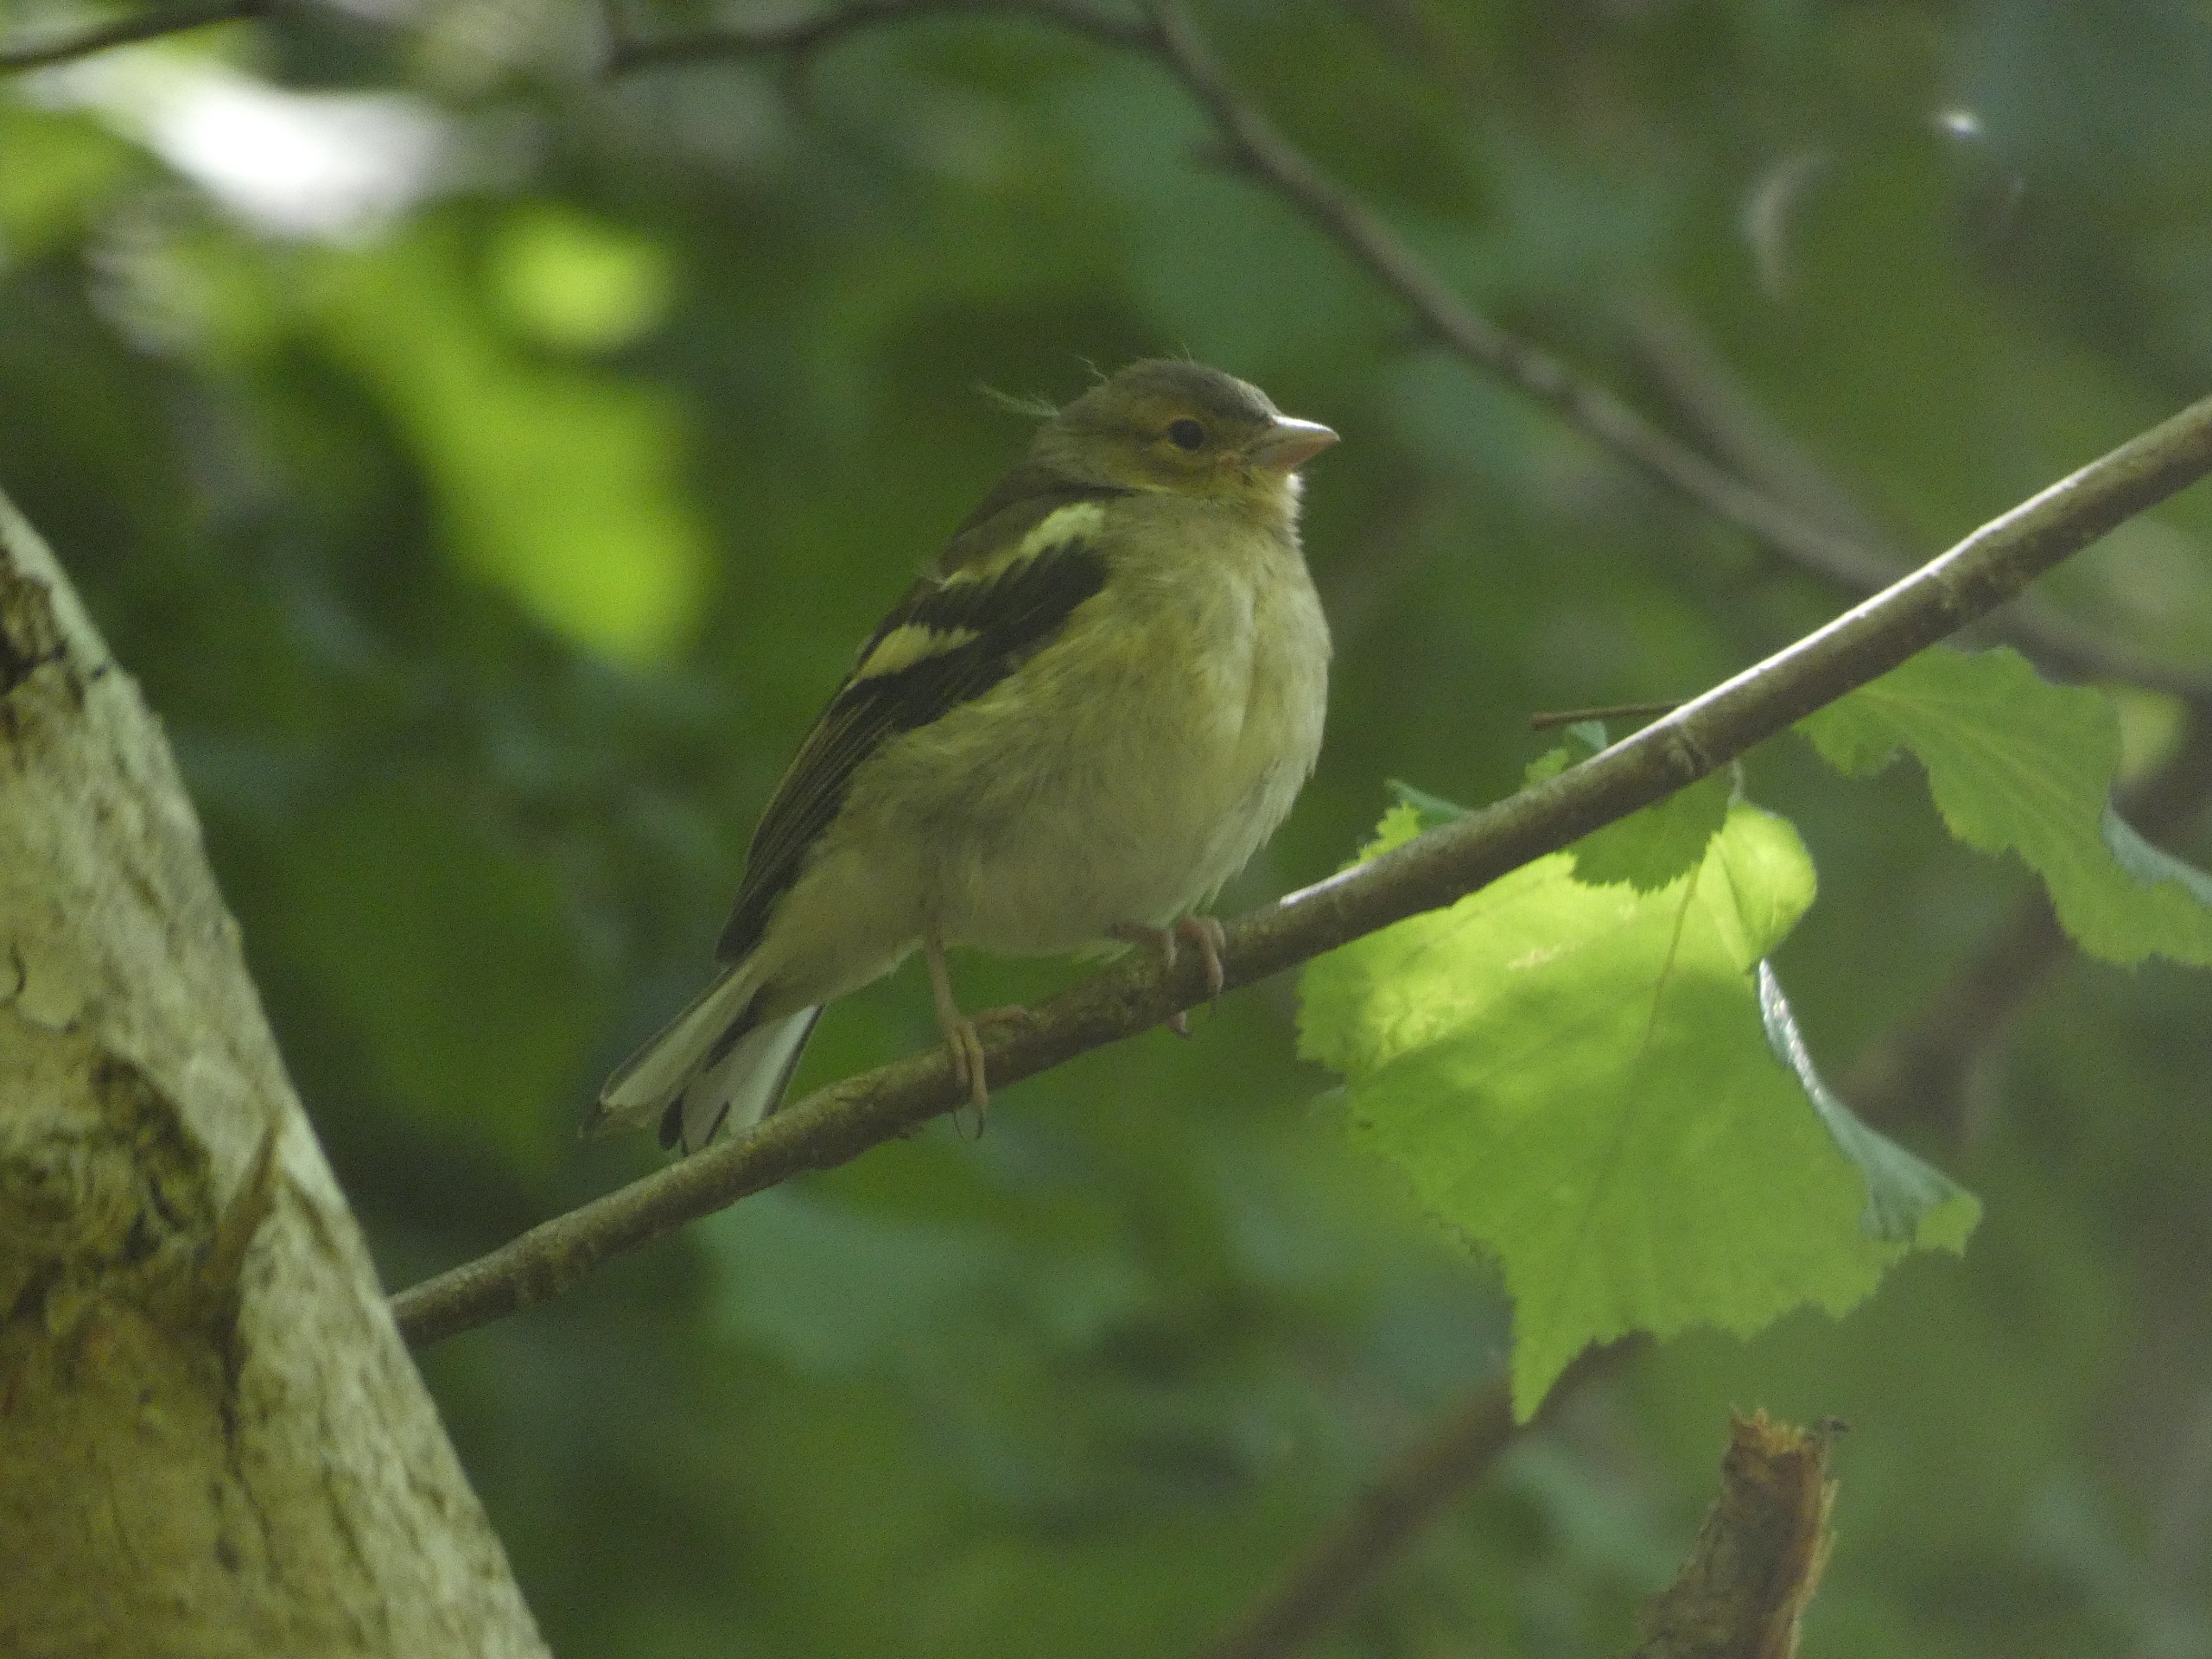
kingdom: Animalia
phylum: Chordata
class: Aves
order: Passeriformes
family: Fringillidae
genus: Fringilla
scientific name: Fringilla coelebs
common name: Bogfinke
